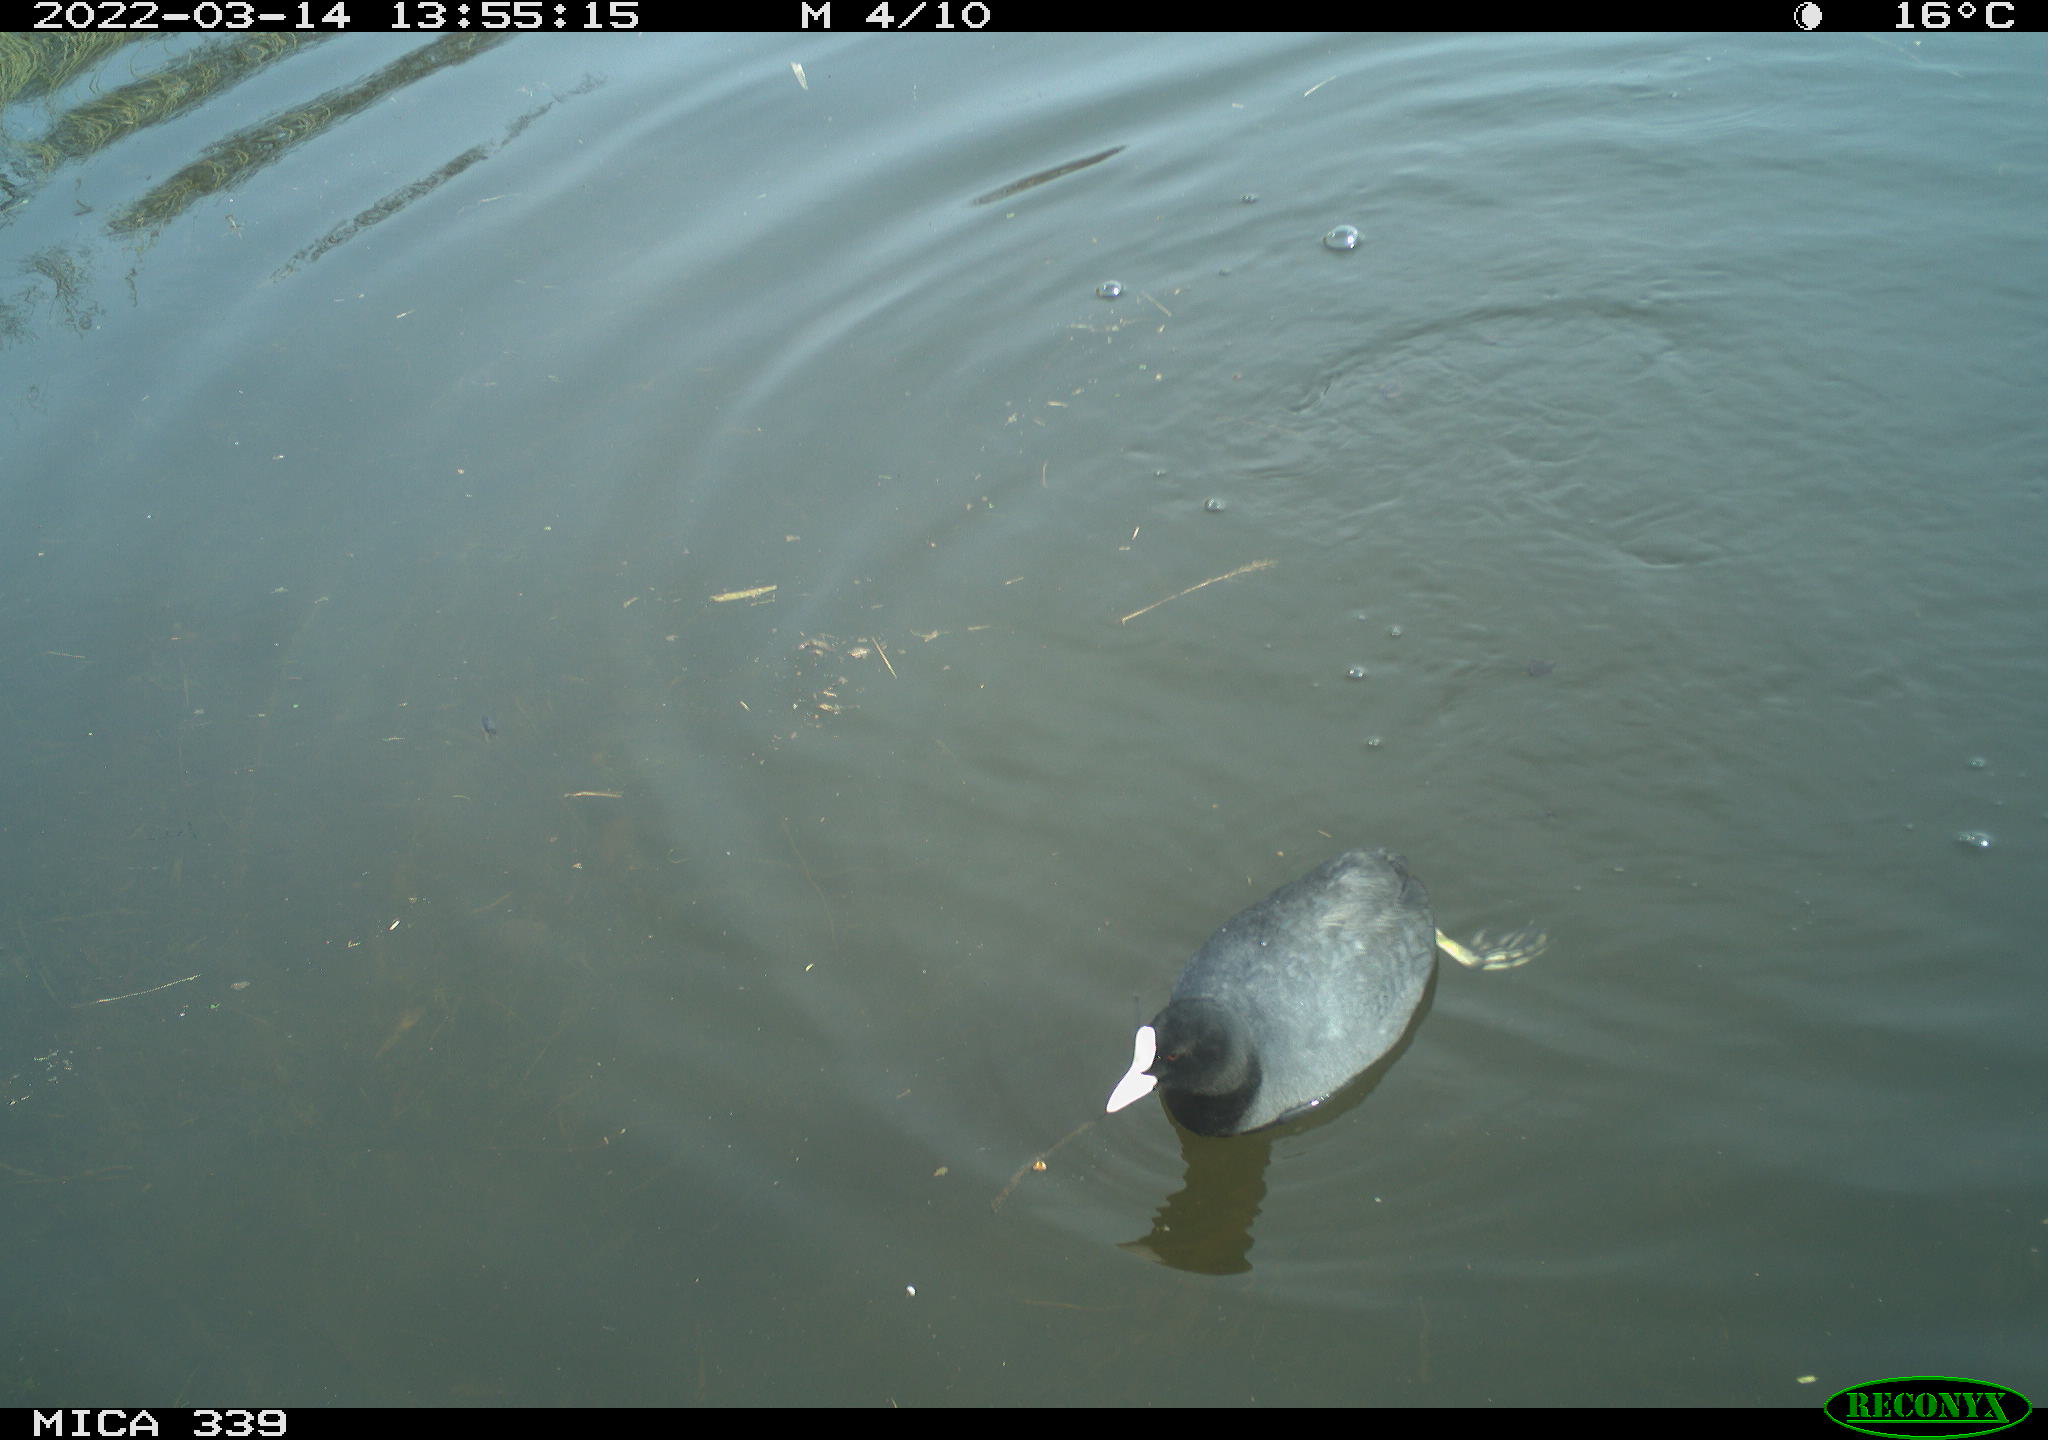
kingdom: Animalia
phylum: Chordata
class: Aves
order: Gruiformes
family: Rallidae
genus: Fulica
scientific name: Fulica atra
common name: Eurasian coot
